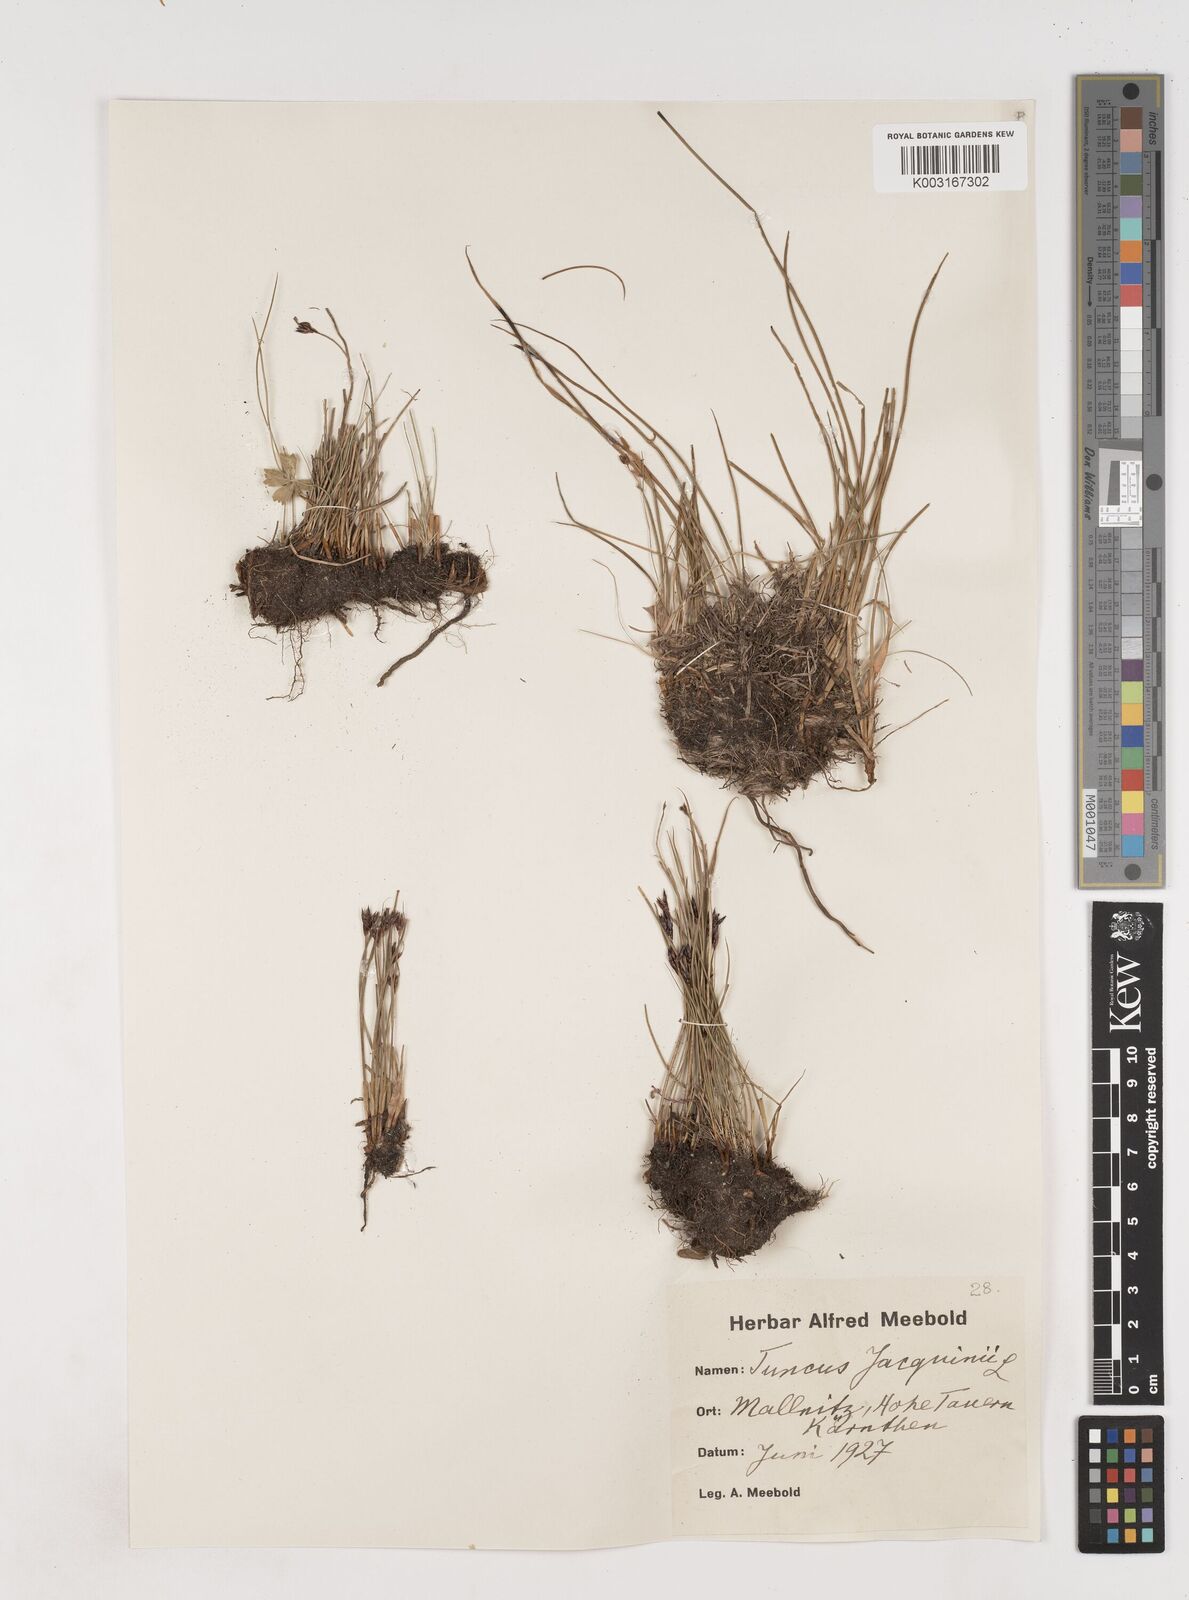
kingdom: Plantae
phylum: Tracheophyta
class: Liliopsida
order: Poales
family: Juncaceae
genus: Juncus
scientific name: Juncus jacquinii
